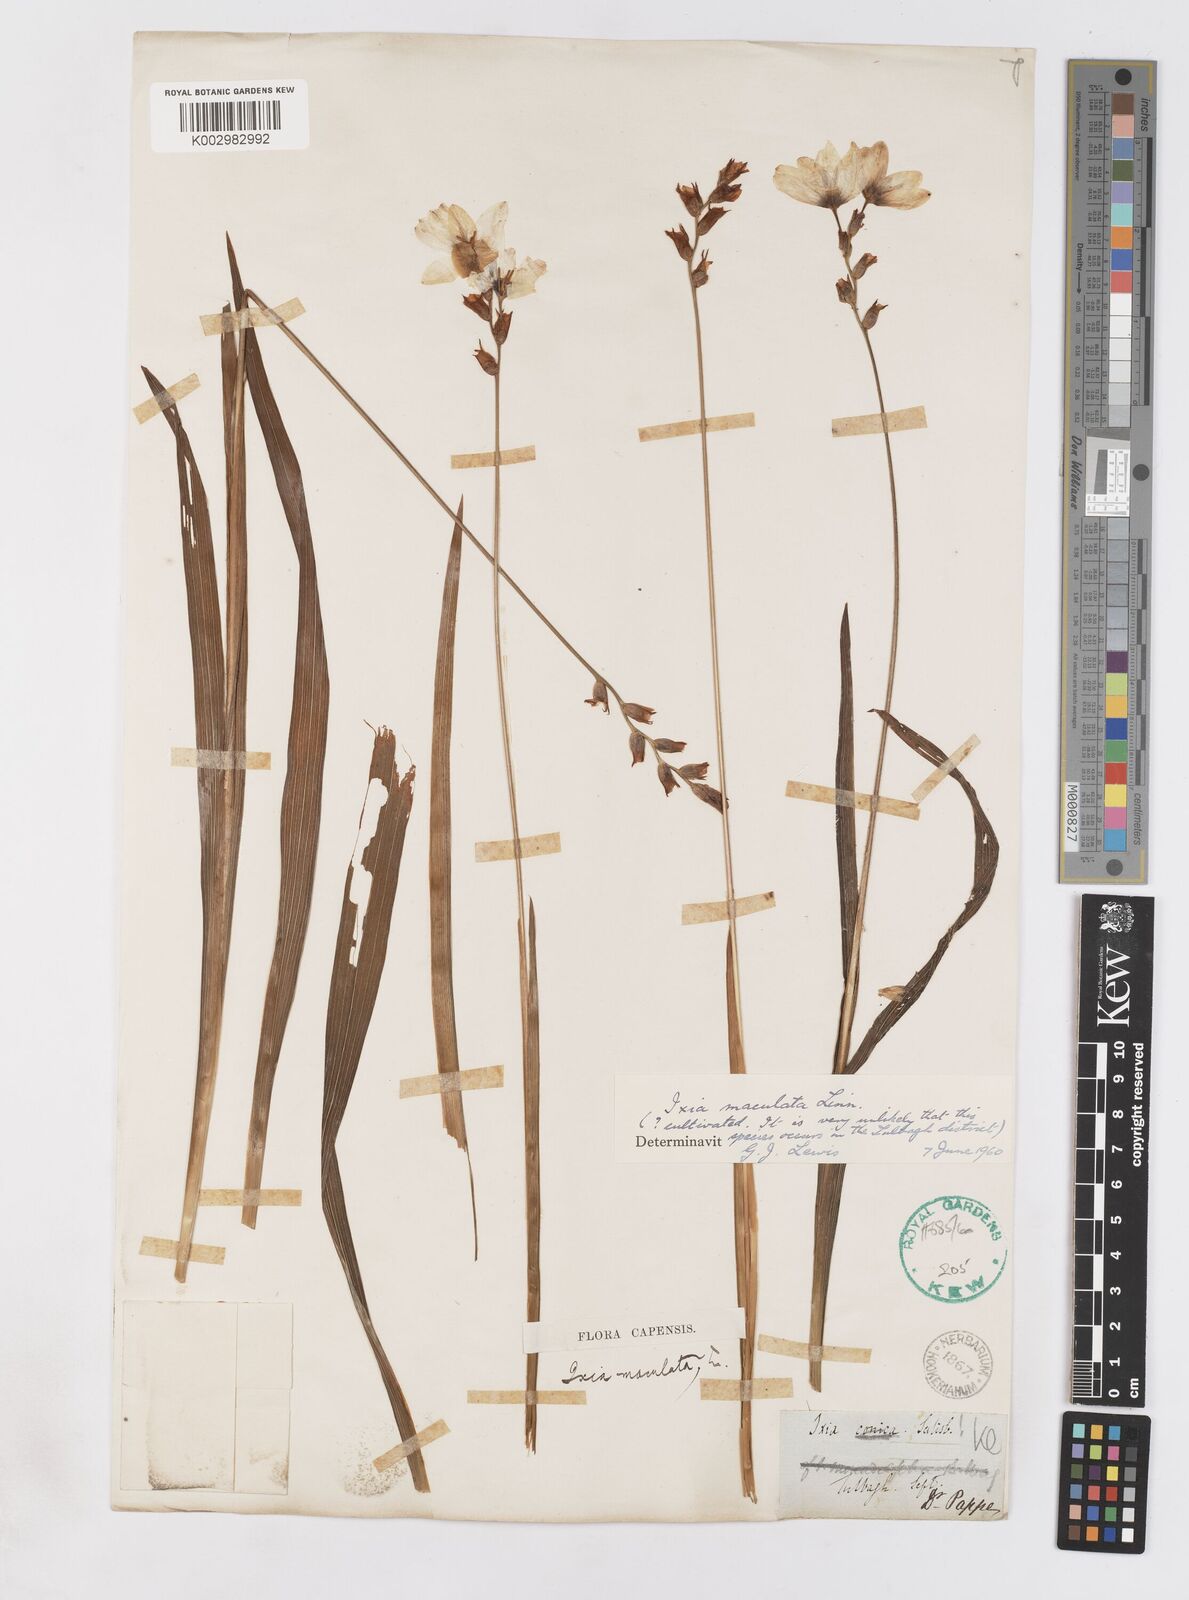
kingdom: Plantae
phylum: Tracheophyta
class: Liliopsida
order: Asparagales
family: Iridaceae
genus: Ixia
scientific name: Ixia maculata
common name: Spotted african cornlily
